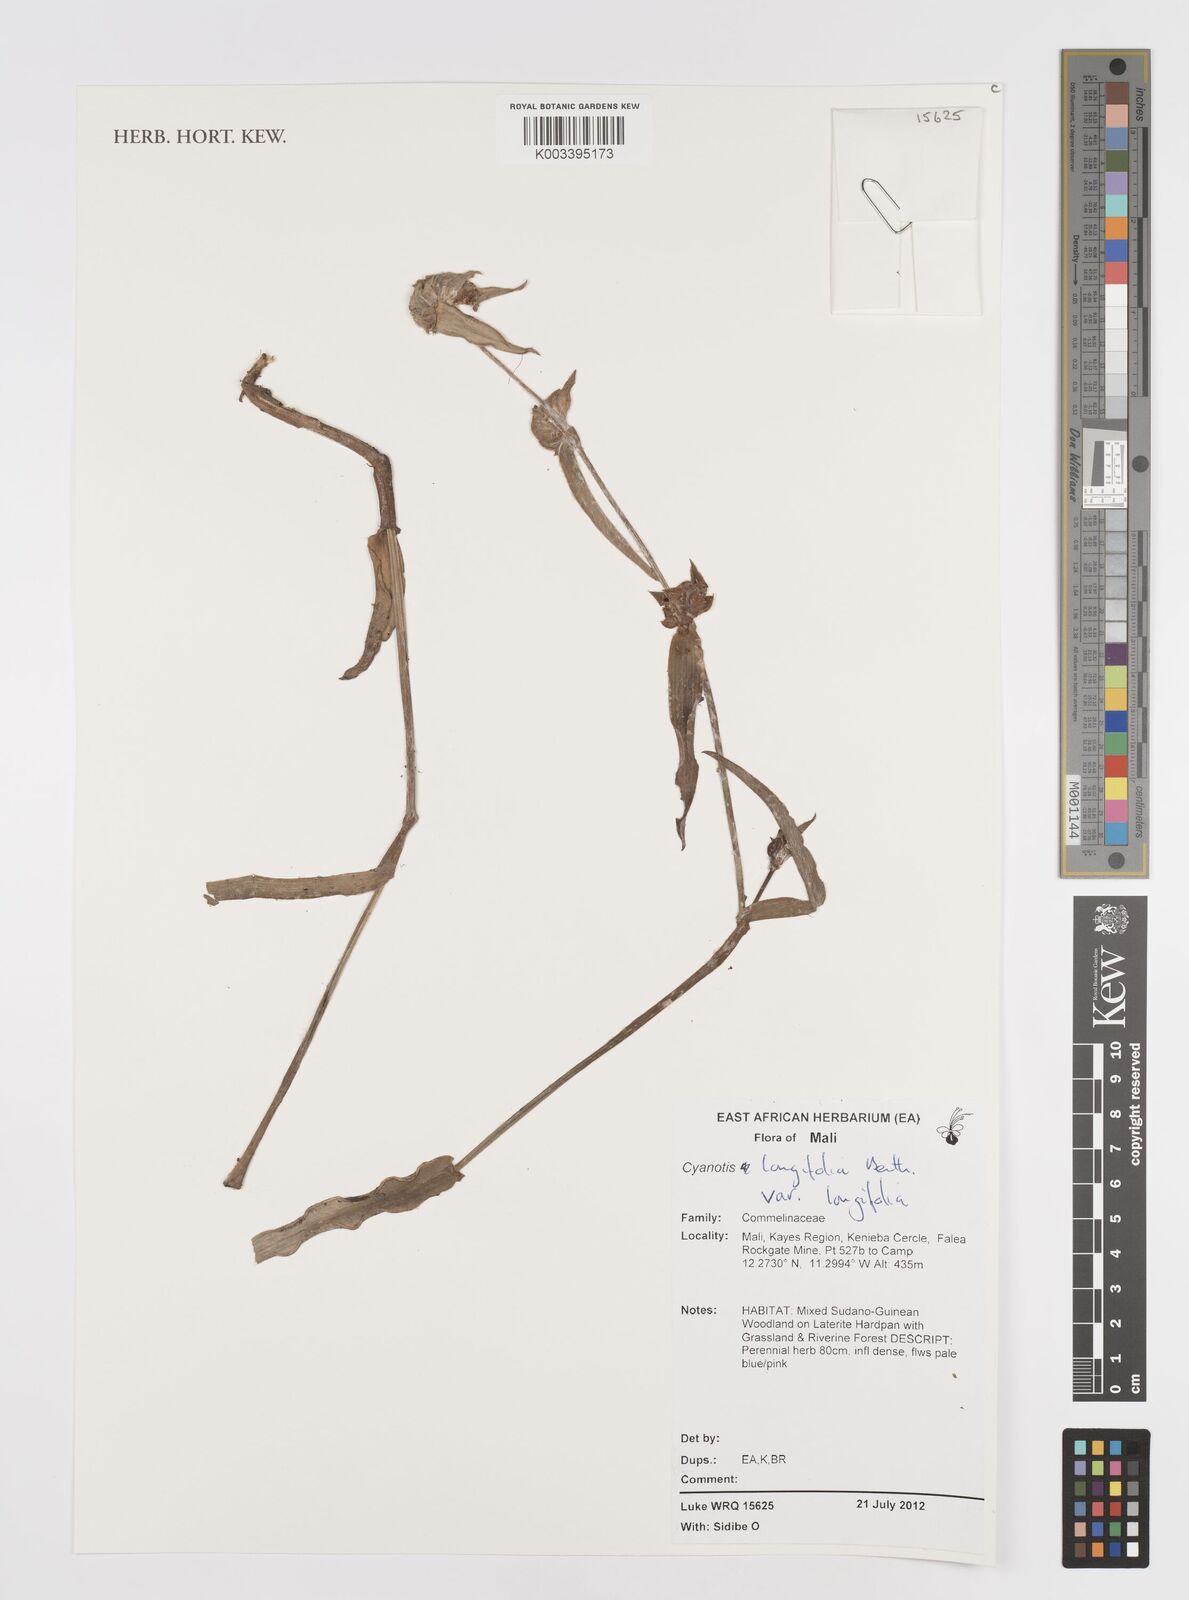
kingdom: Plantae
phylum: Tracheophyta
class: Liliopsida
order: Commelinales
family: Commelinaceae
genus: Cyanotis
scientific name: Cyanotis
